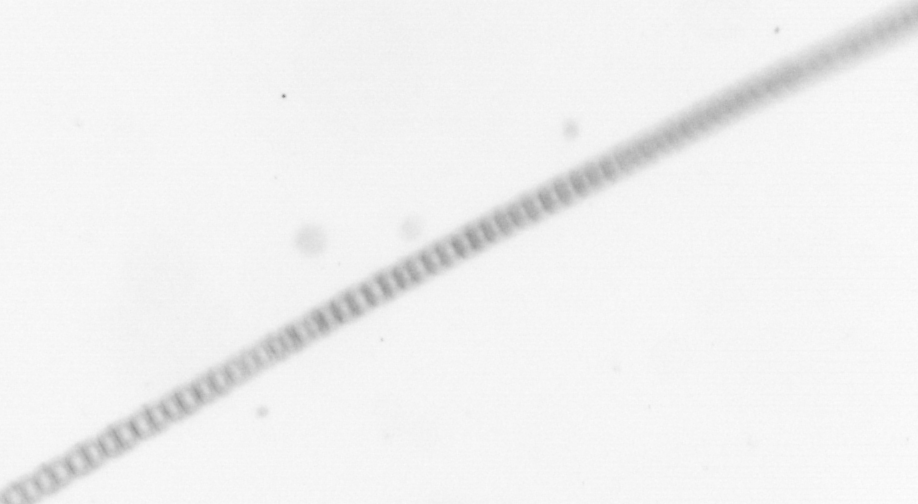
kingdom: Chromista
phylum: Ochrophyta
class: Bacillariophyceae
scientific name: Bacillariophyceae
